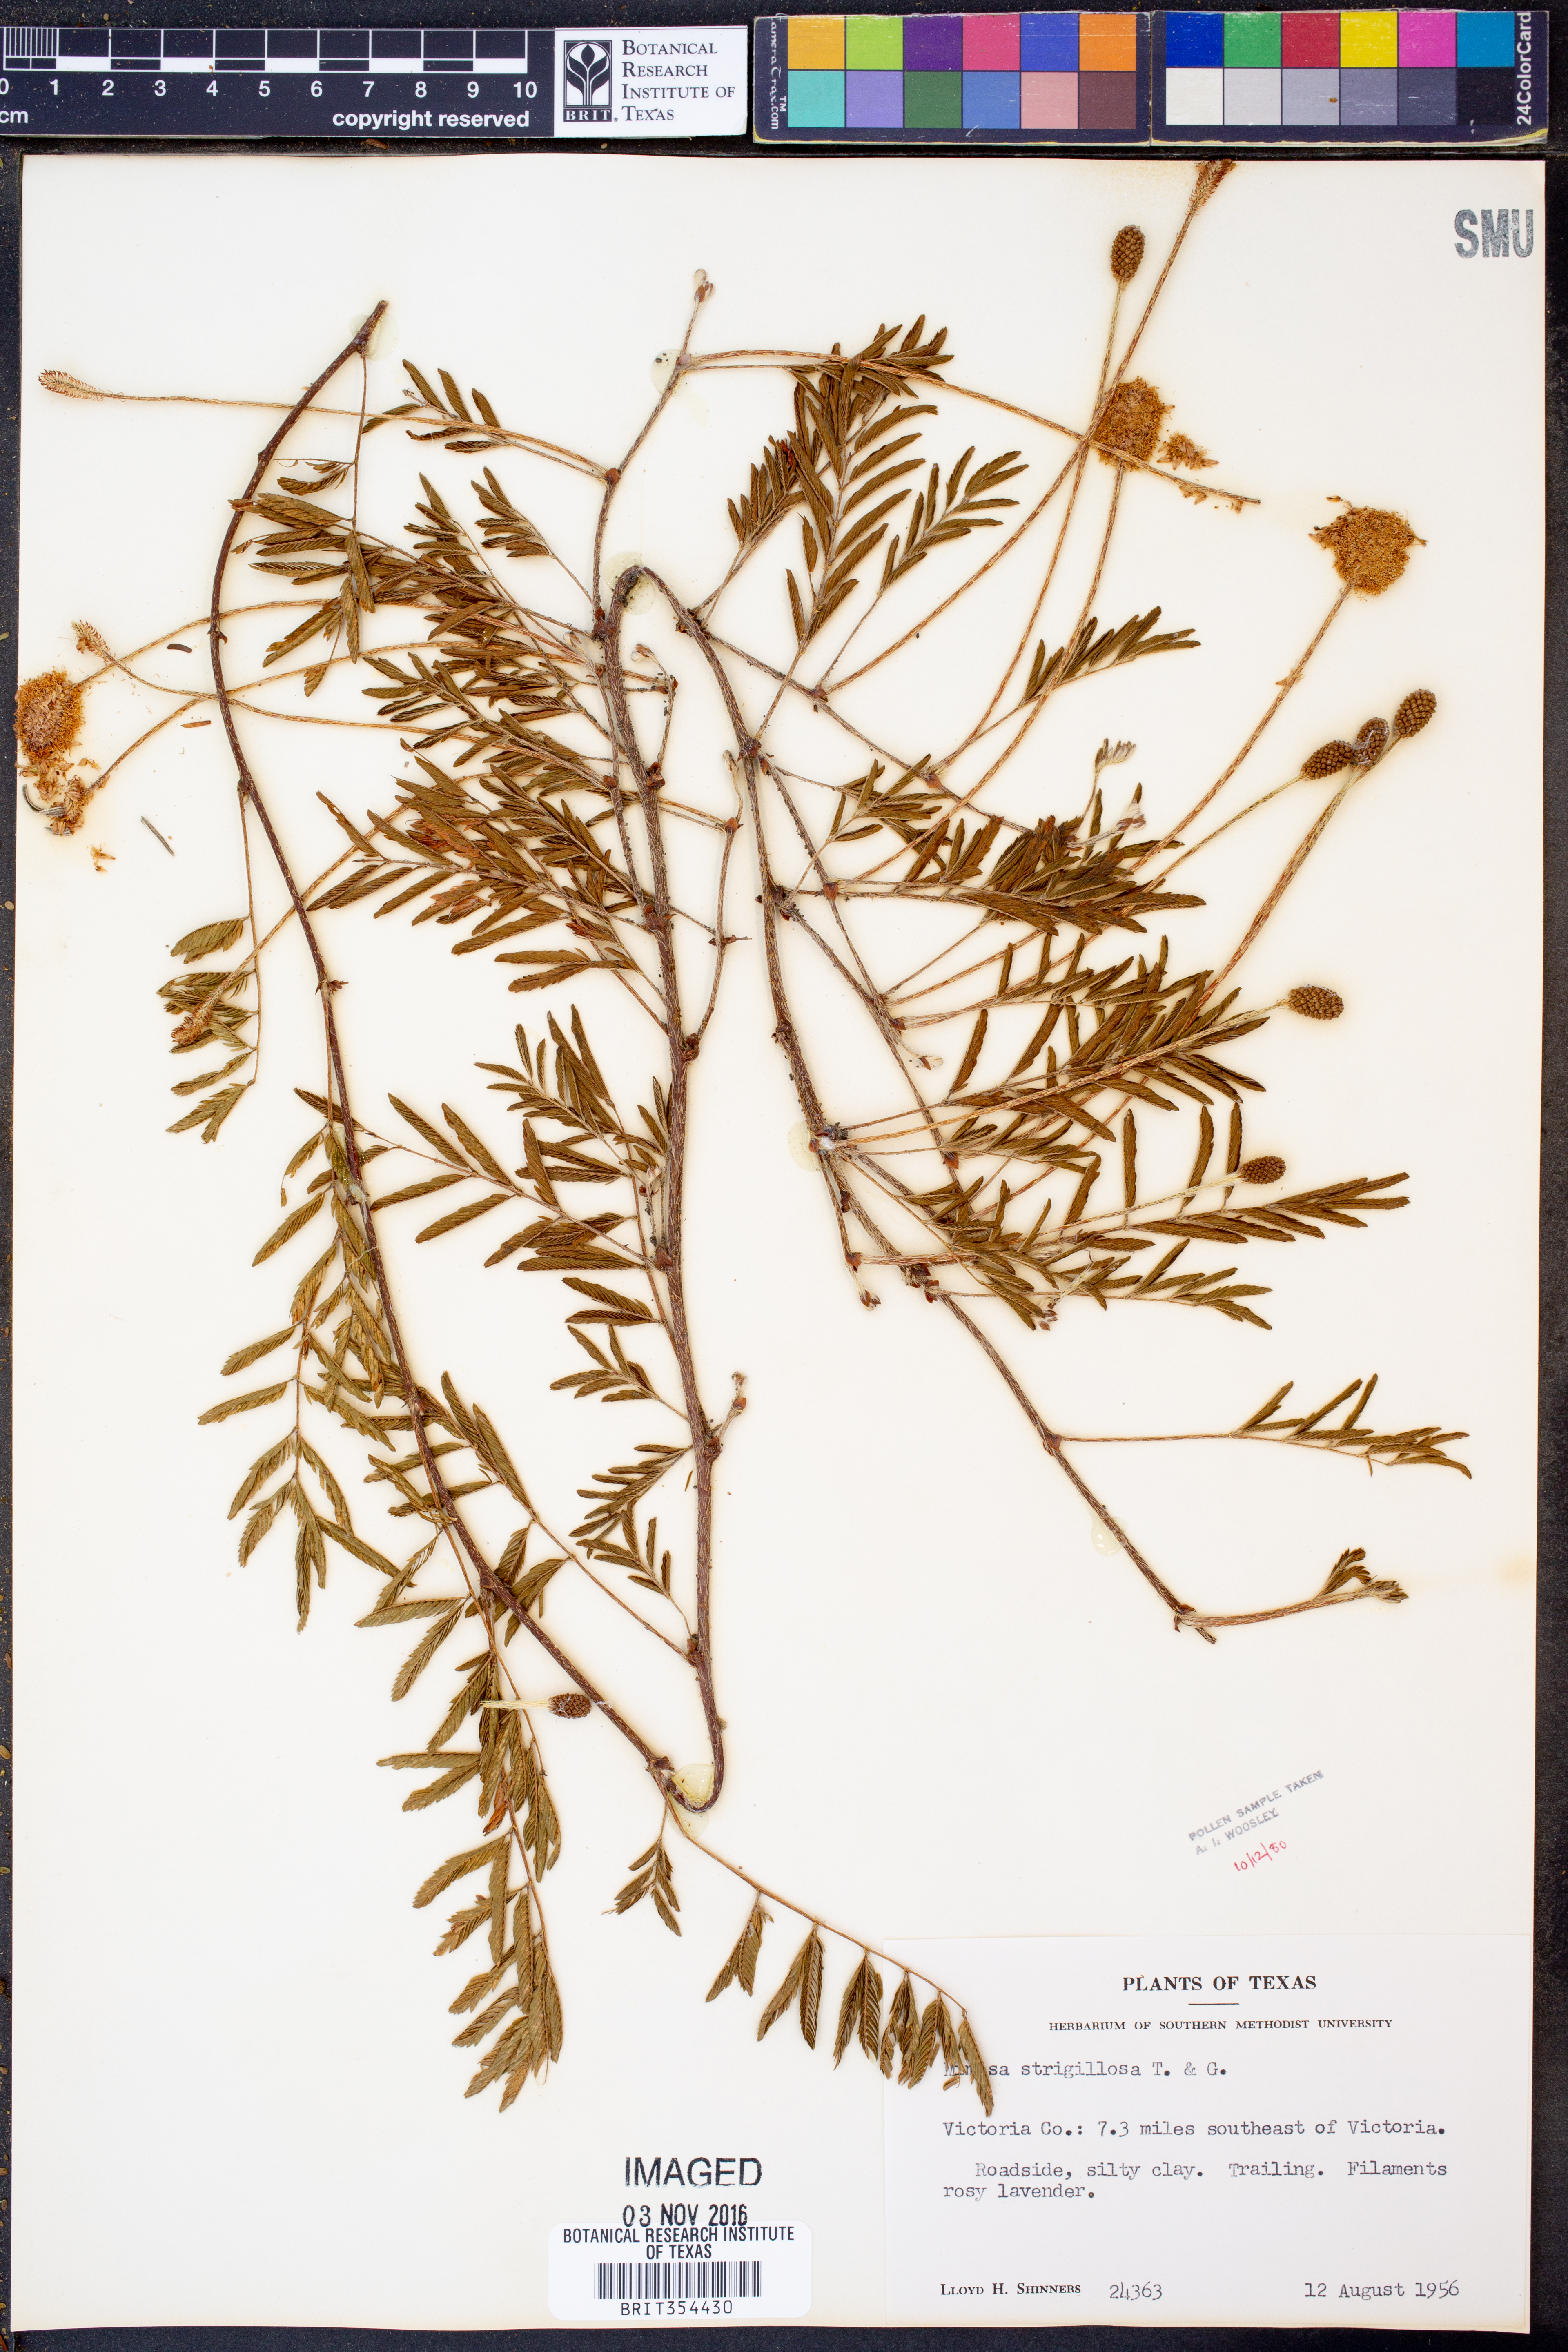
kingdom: Plantae
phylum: Tracheophyta
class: Magnoliopsida
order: Fabales
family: Fabaceae
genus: Mimosa
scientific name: Mimosa strigillosa
